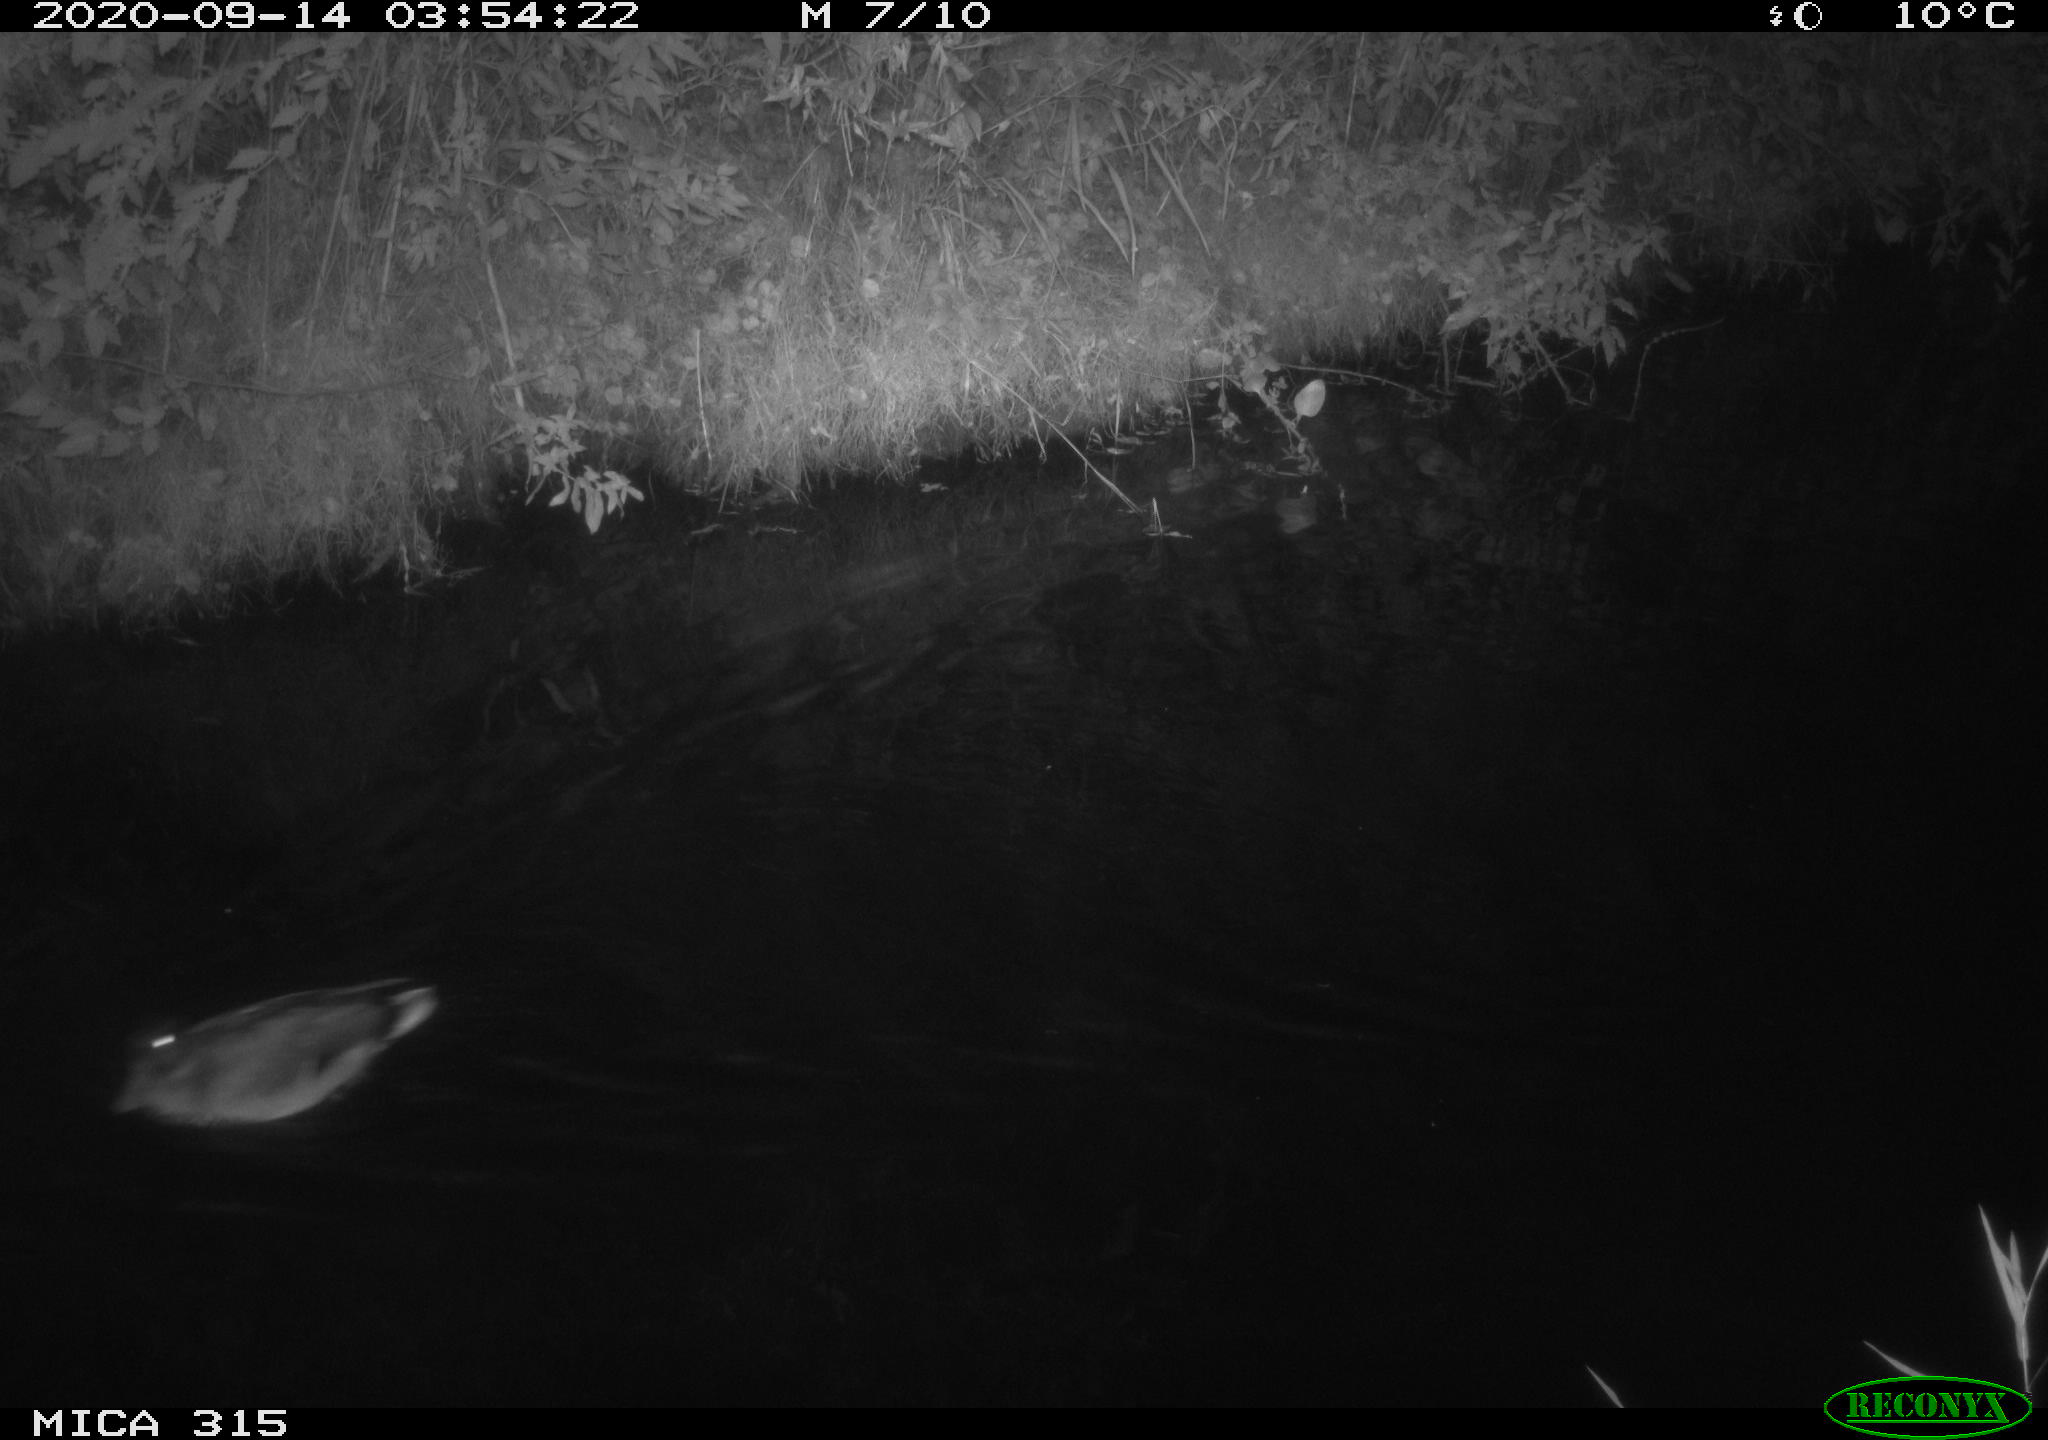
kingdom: Animalia
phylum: Chordata
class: Aves
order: Anseriformes
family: Anatidae
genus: Anas
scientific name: Anas platyrhynchos
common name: Mallard
